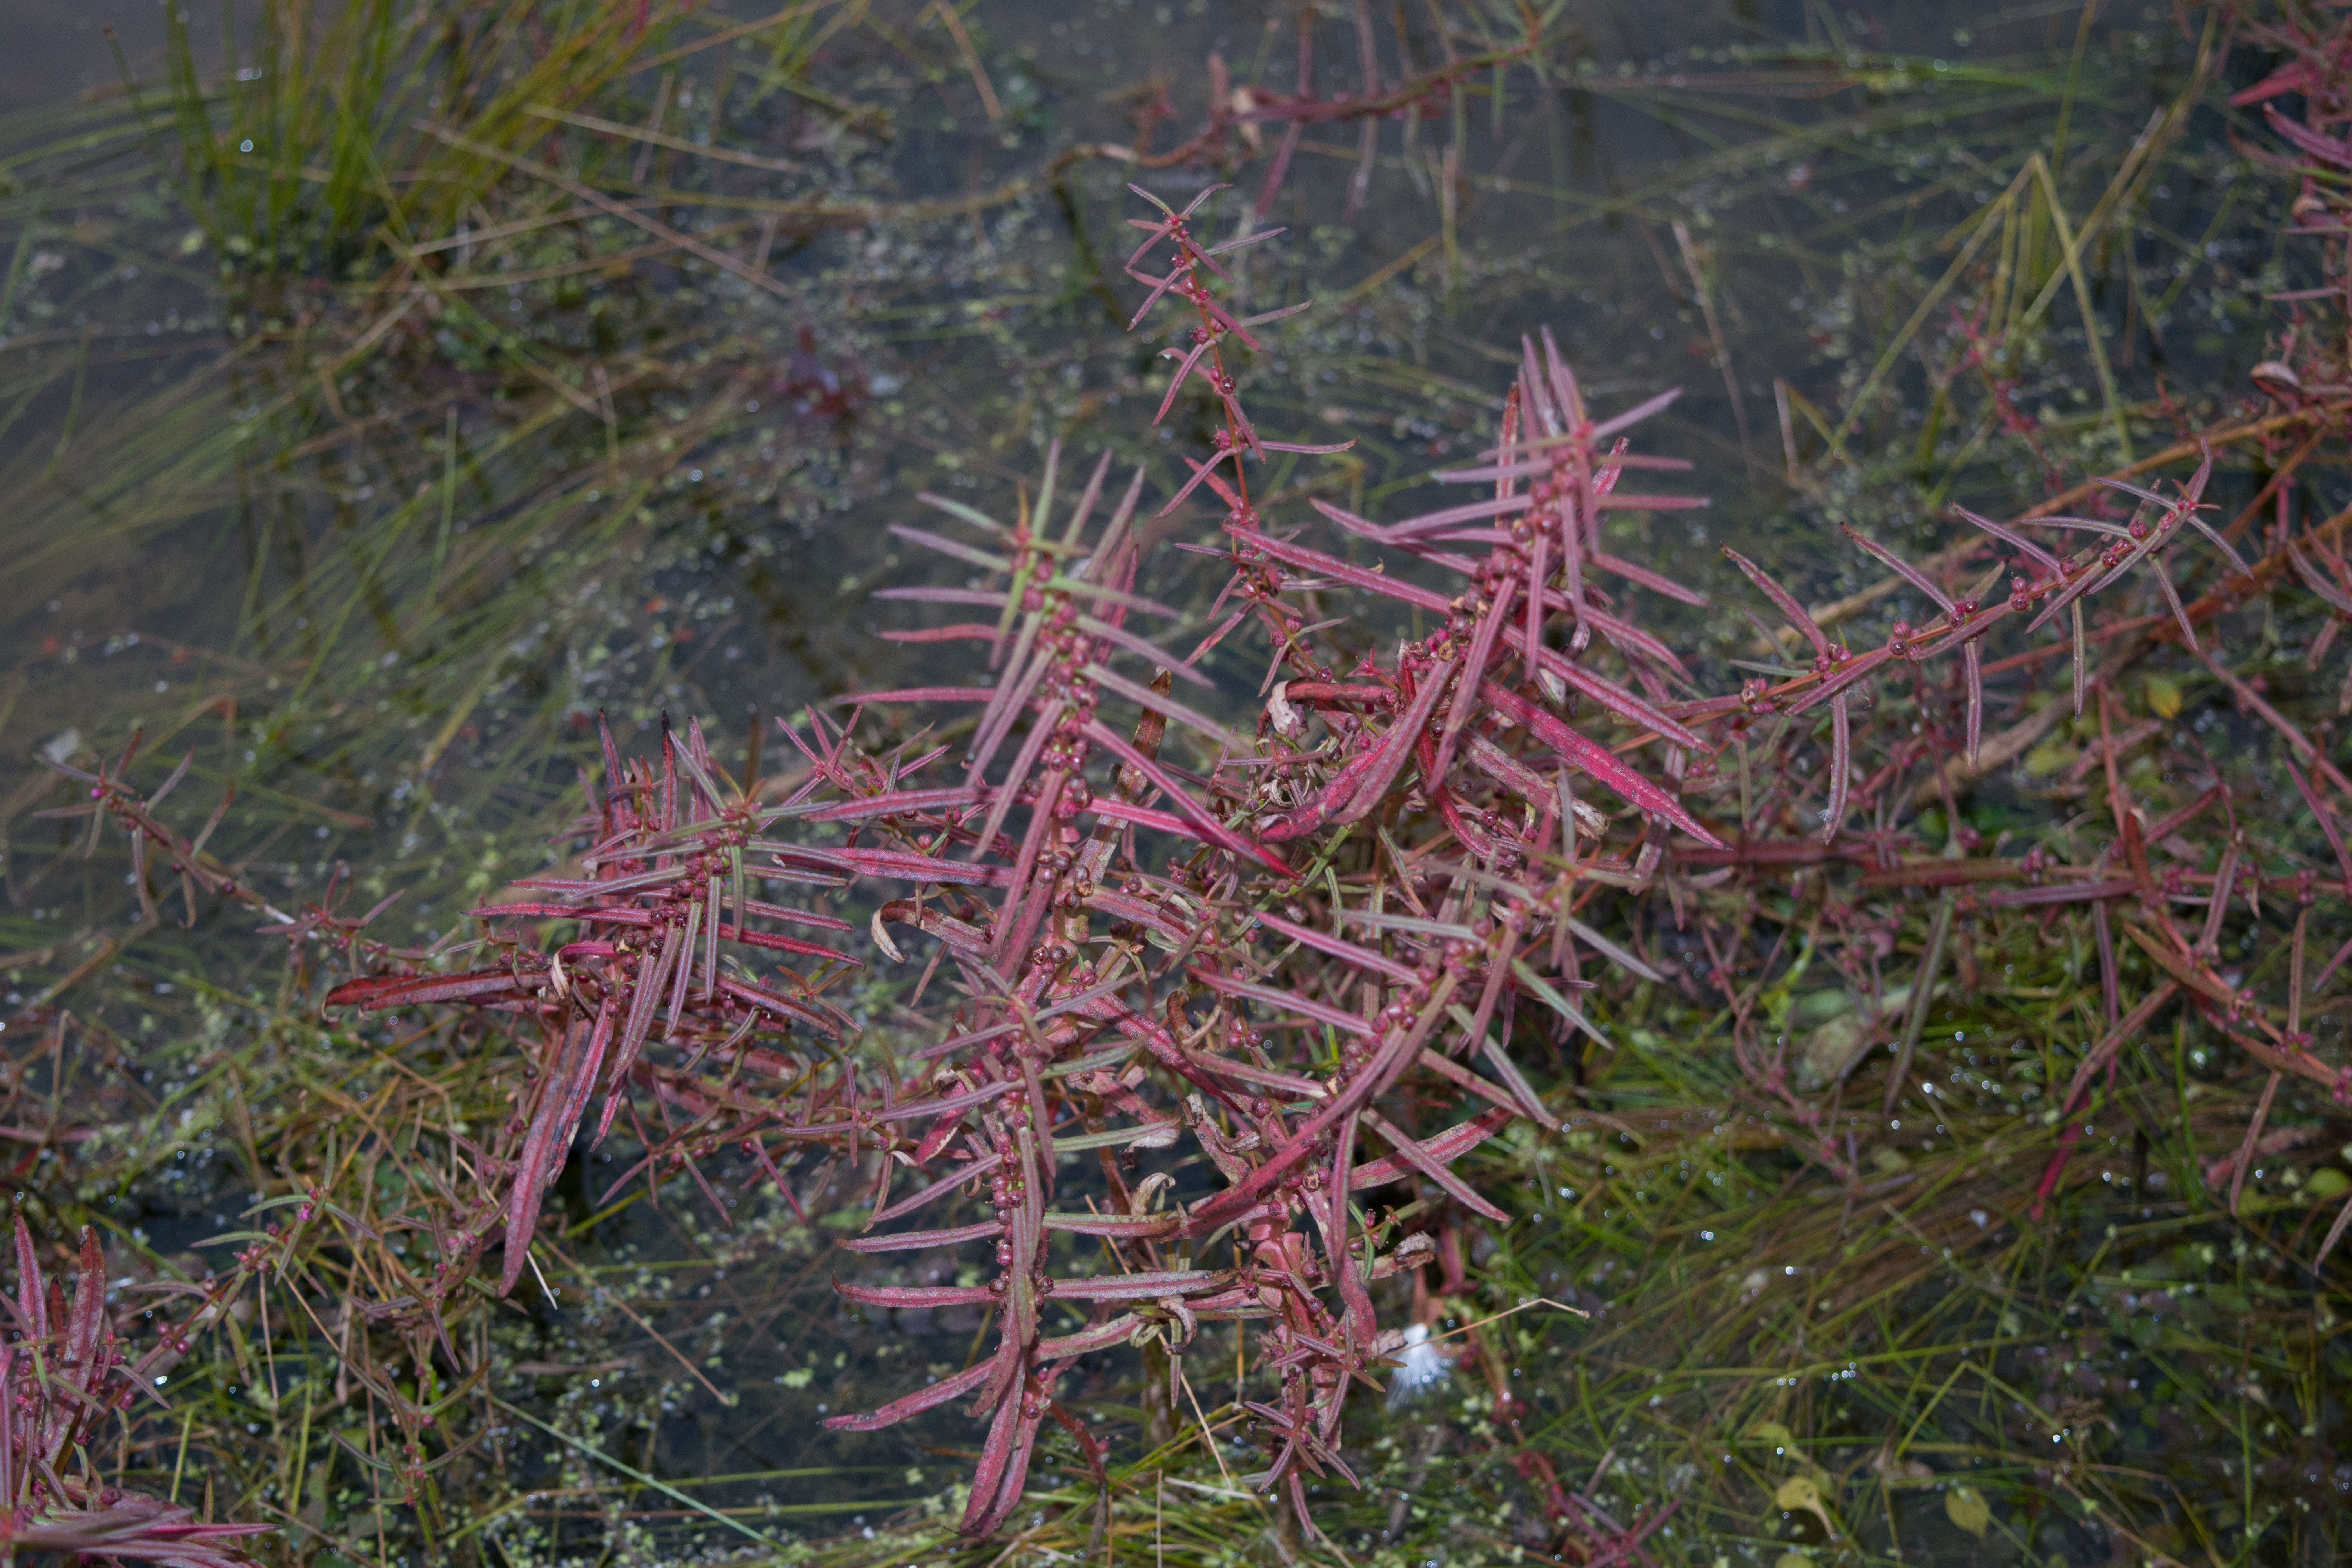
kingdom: Plantae
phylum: Tracheophyta
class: Magnoliopsida
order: Myrtales
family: Lythraceae
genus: Ammannia
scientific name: Ammannia coccinea
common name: redstem
